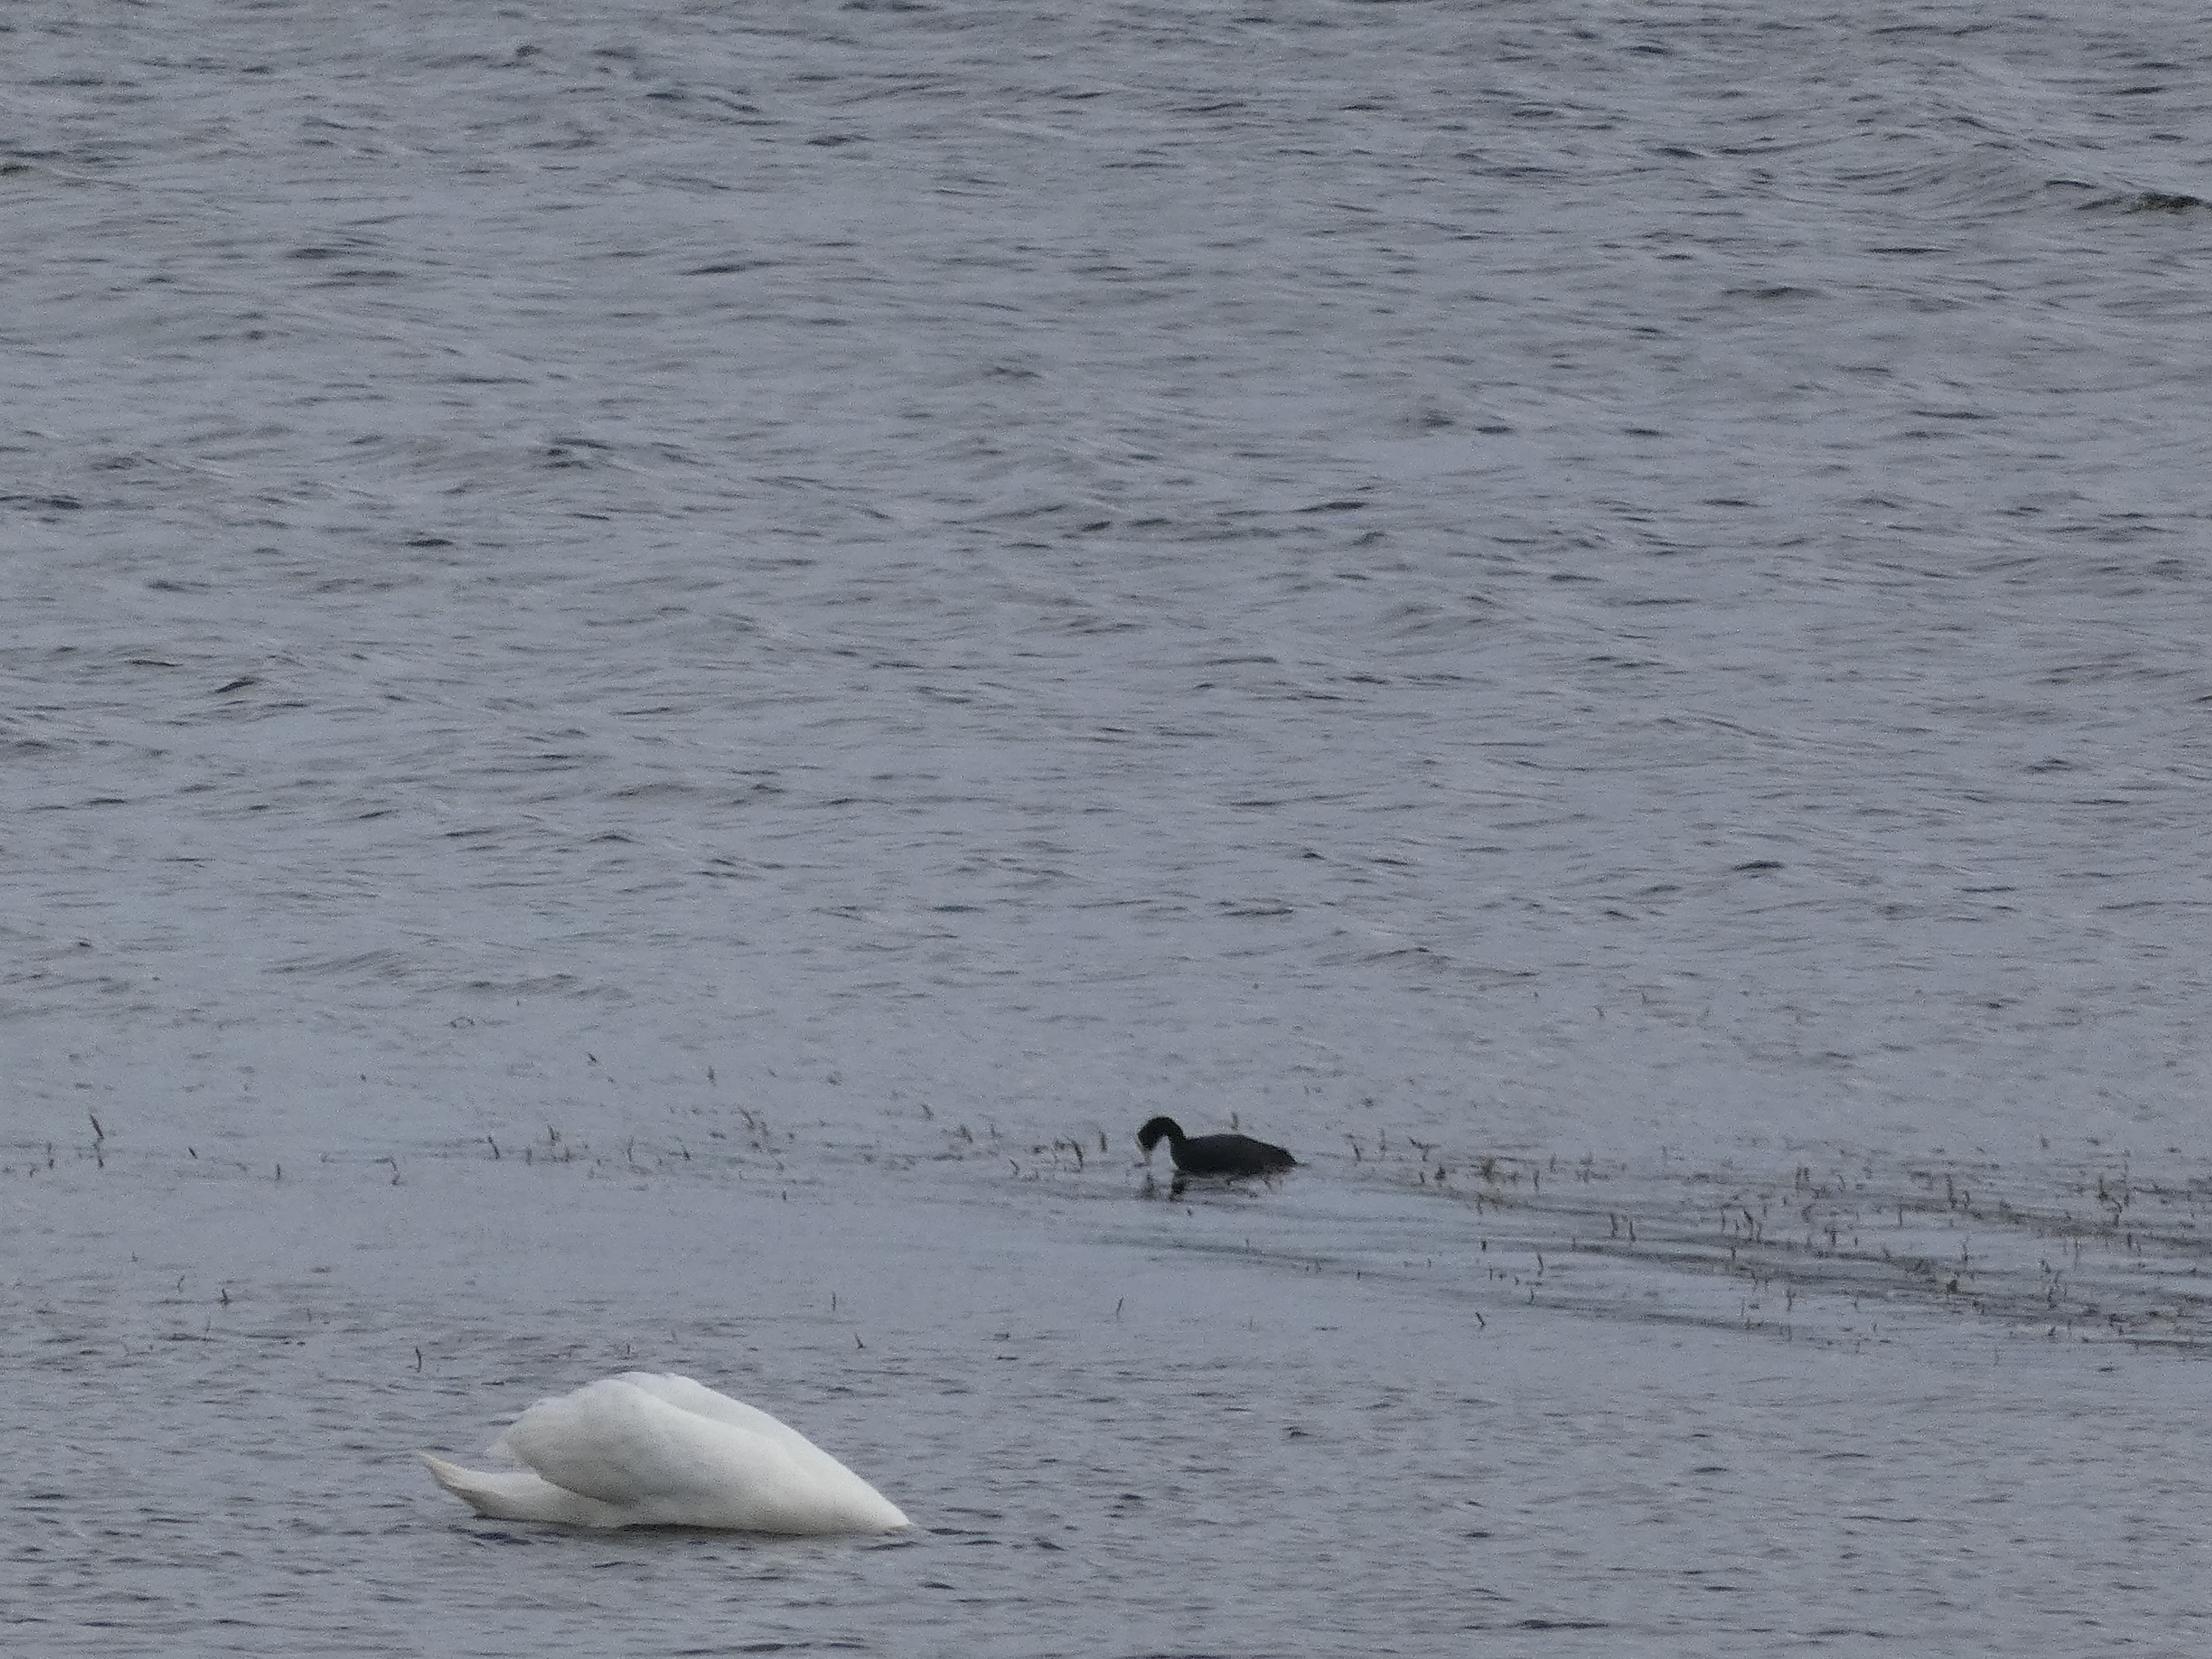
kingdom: Animalia
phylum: Chordata
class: Aves
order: Gruiformes
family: Rallidae
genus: Fulica
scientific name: Fulica atra
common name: Blishøne
